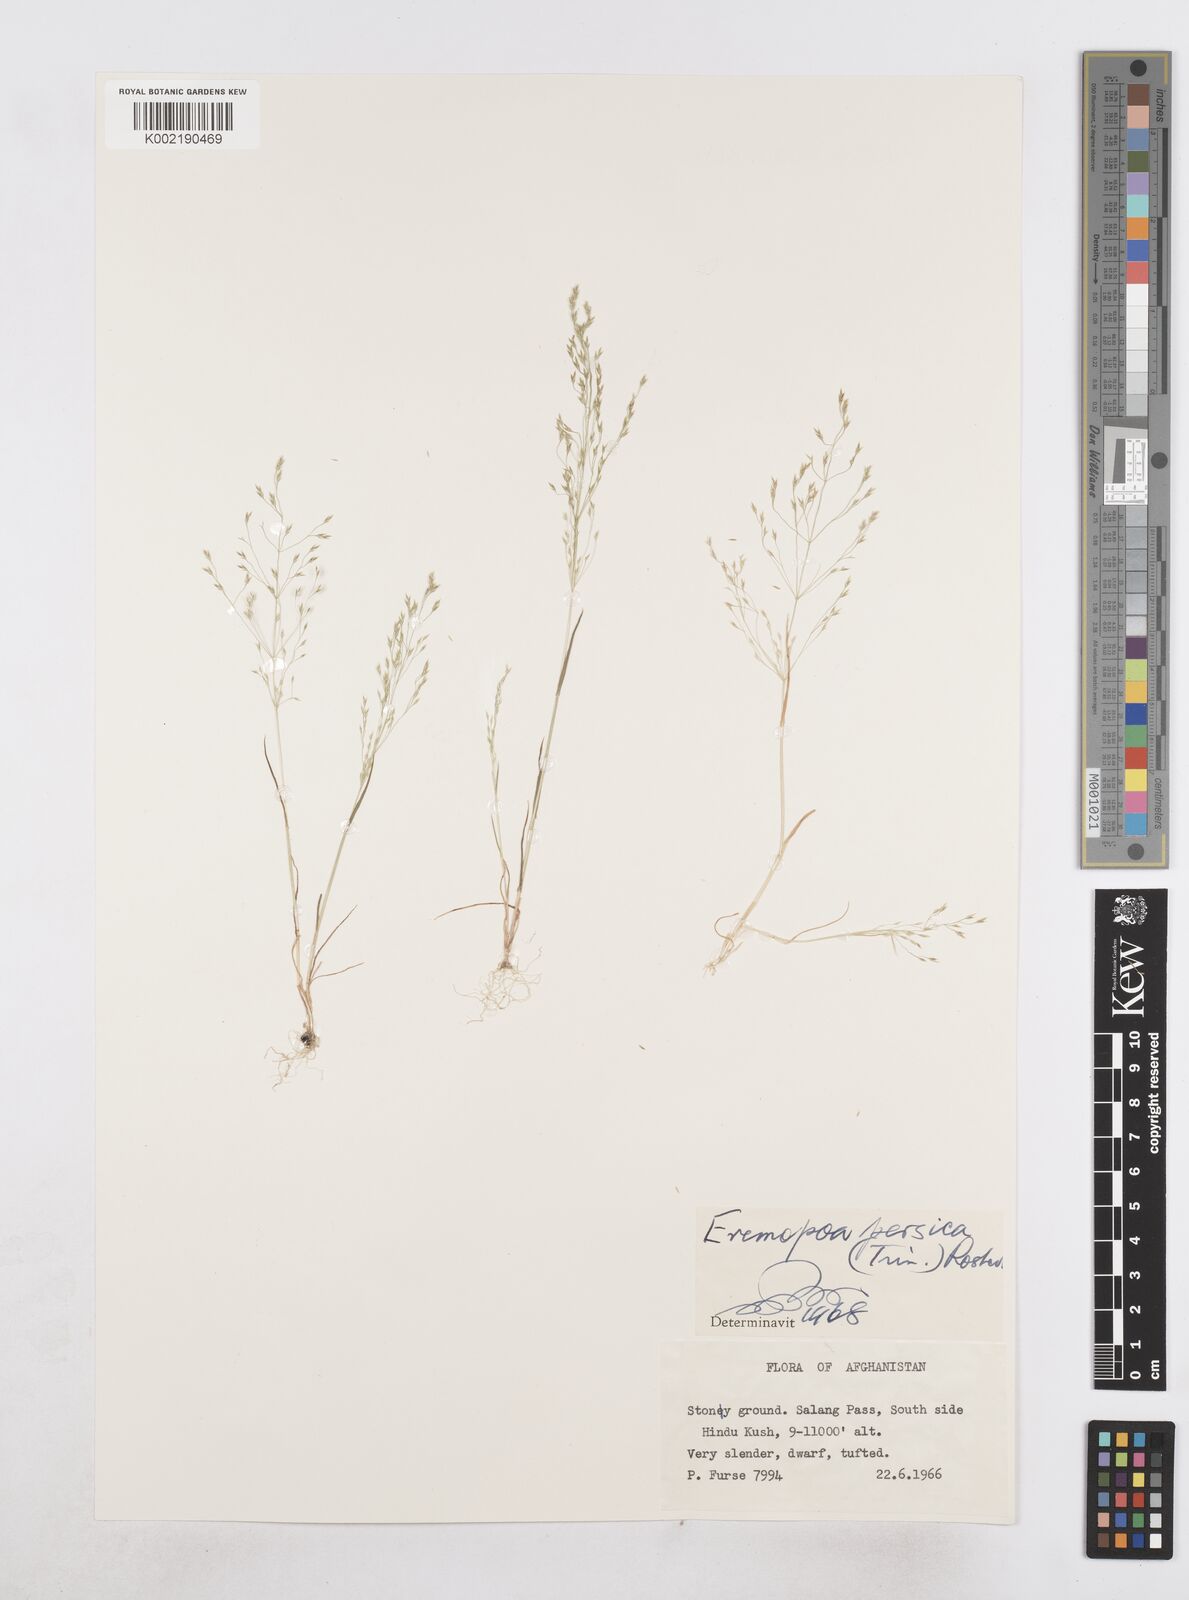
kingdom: Plantae
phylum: Tracheophyta
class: Liliopsida
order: Poales
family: Poaceae
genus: Poa
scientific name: Poa diaphora
